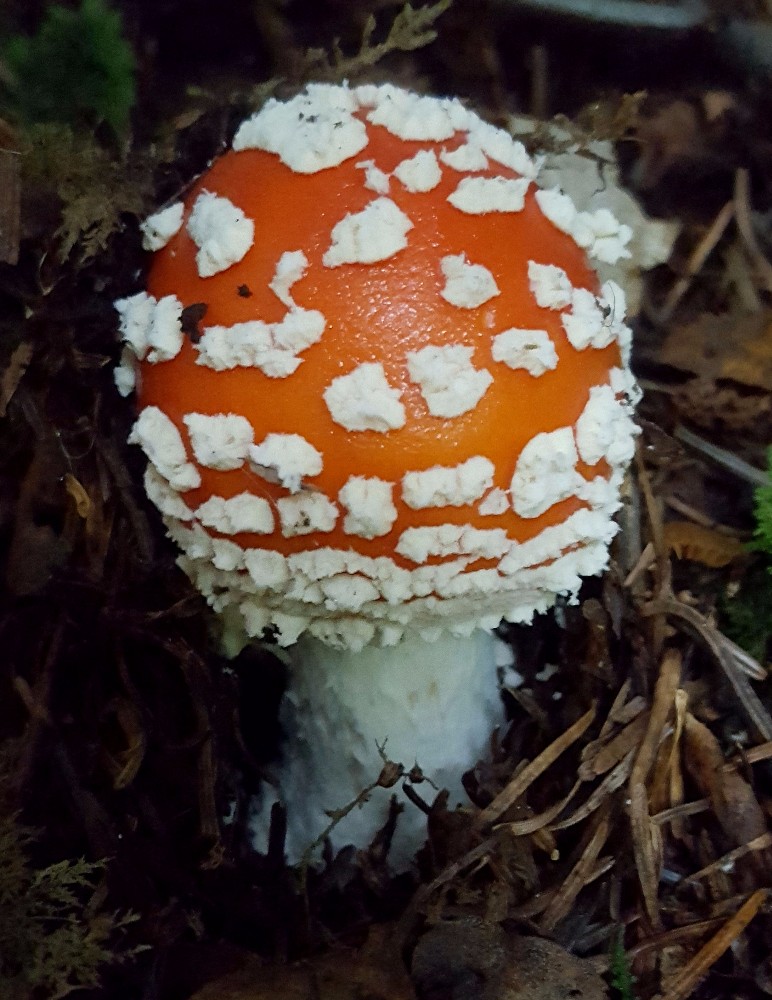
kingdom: Fungi
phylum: Basidiomycota
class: Agaricomycetes
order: Agaricales
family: Amanitaceae
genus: Amanita
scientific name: Amanita muscaria
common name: rød fluesvamp
